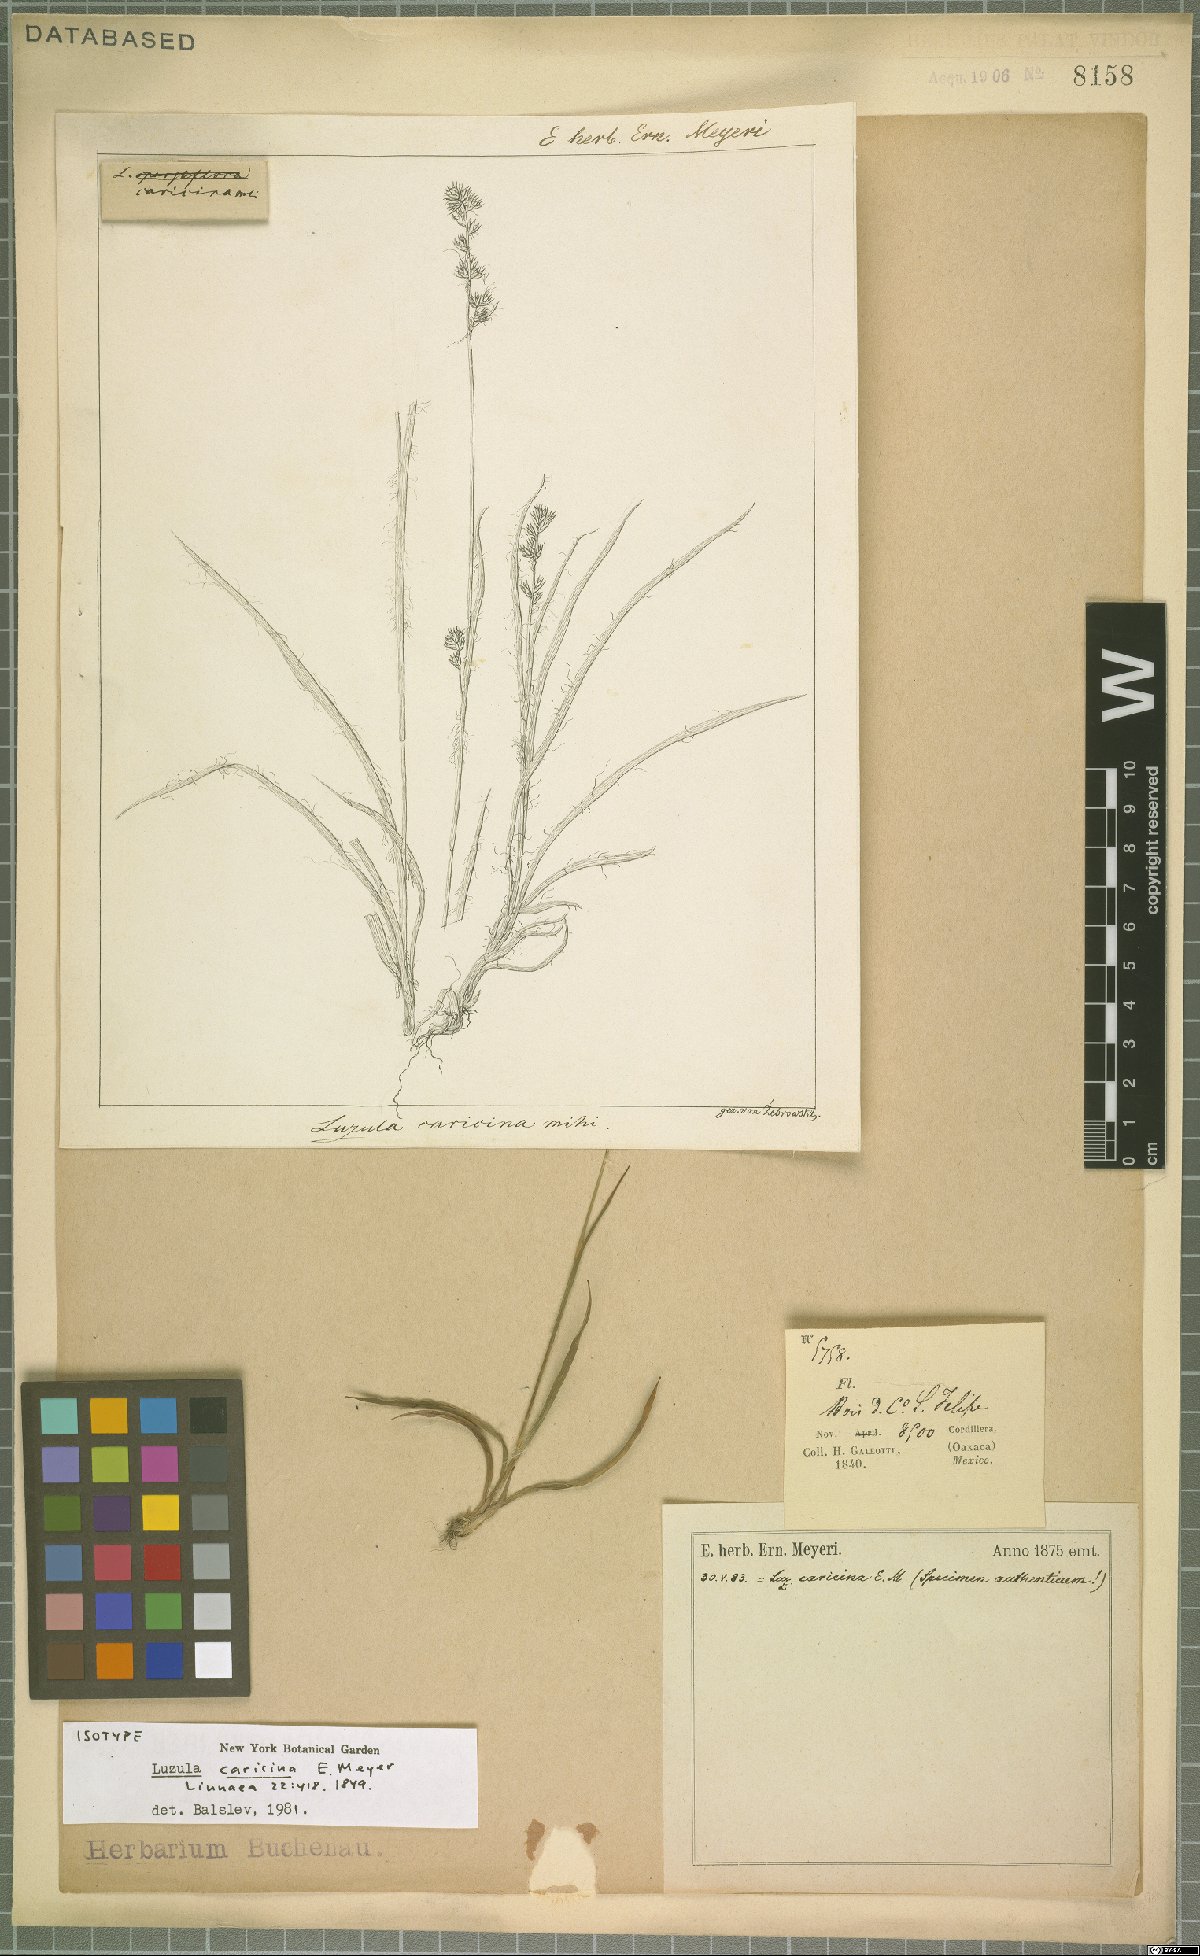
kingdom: Plantae
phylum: Tracheophyta
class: Liliopsida
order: Poales
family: Juncaceae
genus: Luzula
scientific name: Luzula caricina
